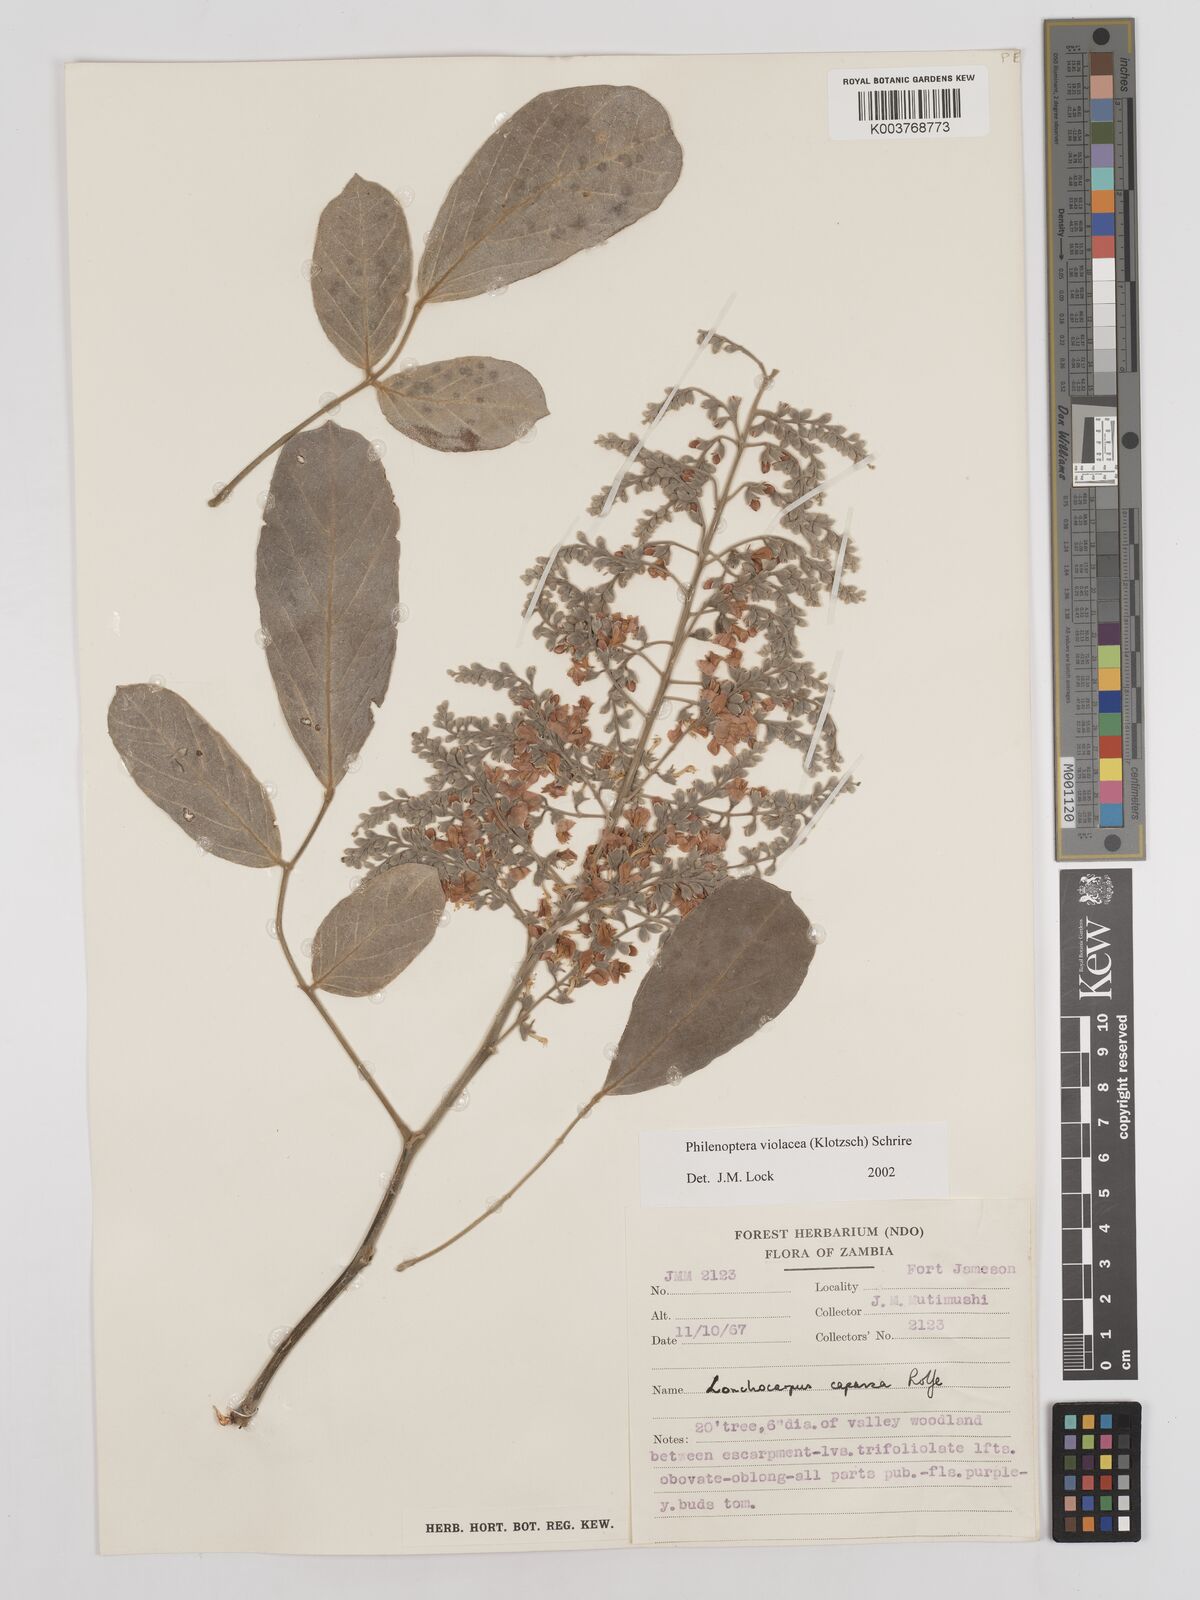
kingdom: Plantae
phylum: Tracheophyta
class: Magnoliopsida
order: Fabales
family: Fabaceae
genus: Philenoptera
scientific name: Philenoptera violacea
